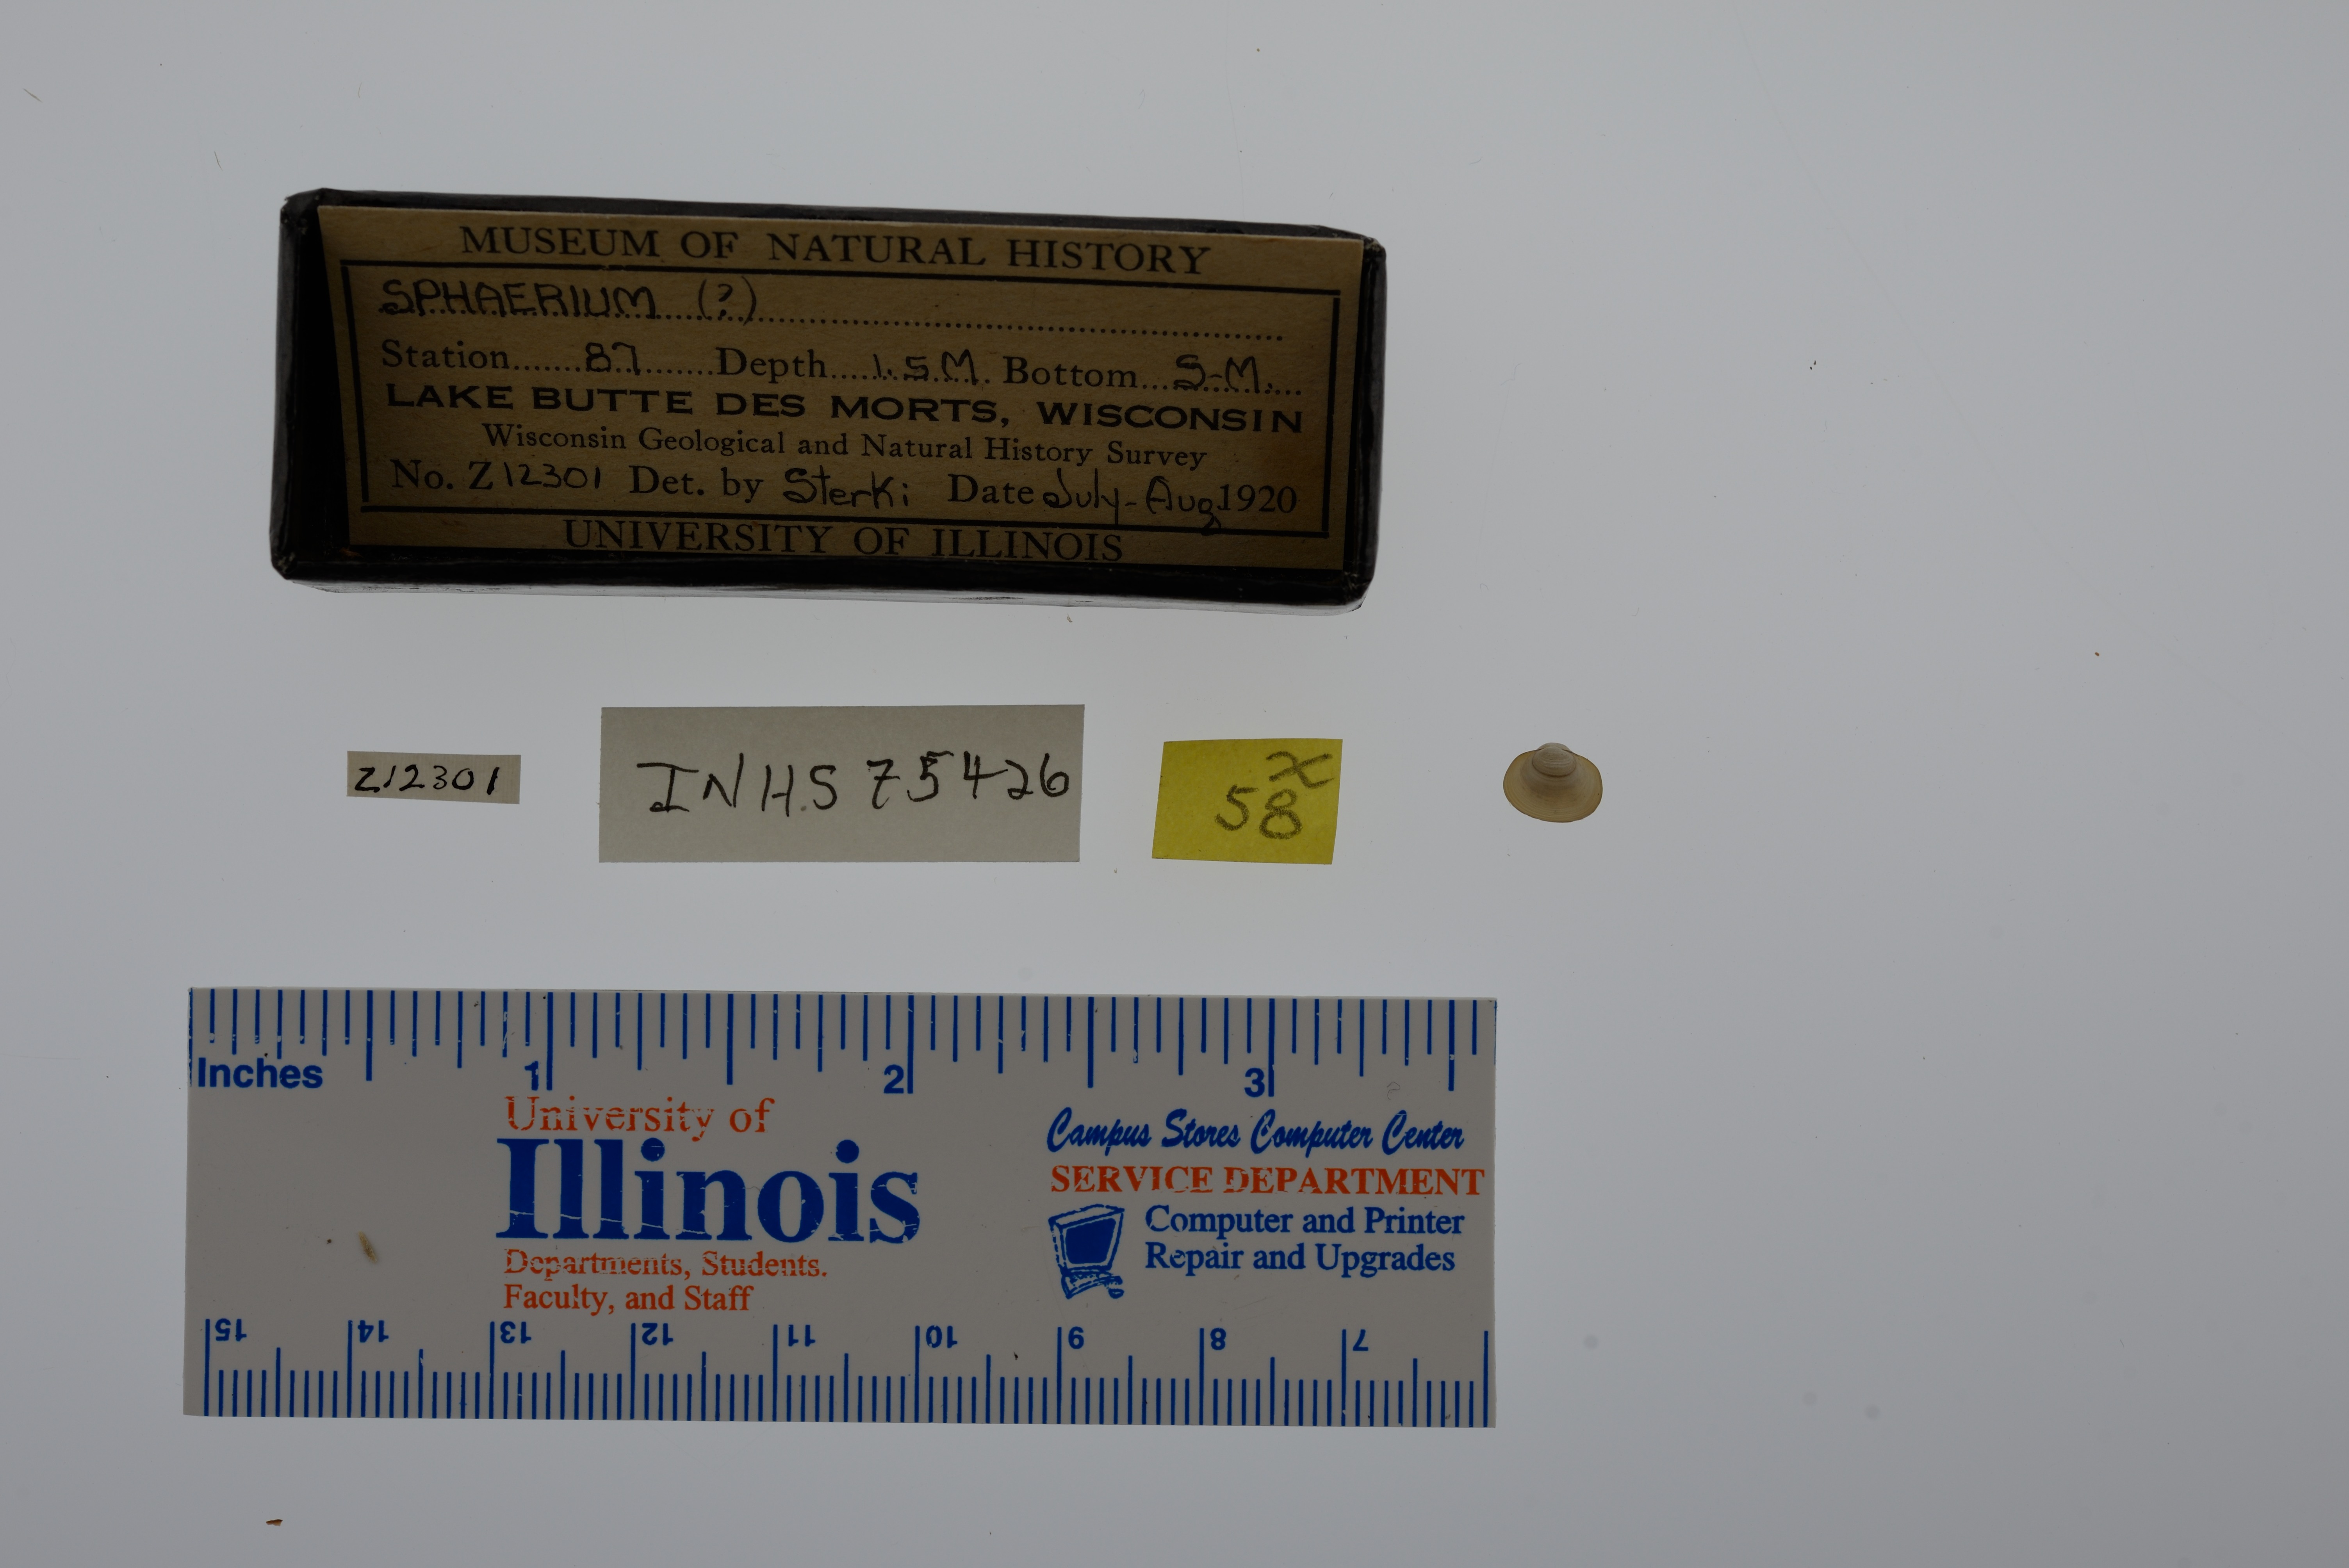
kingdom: Animalia
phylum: Mollusca
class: Bivalvia
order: Sphaeriida
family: Sphaeriidae
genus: Sphaerium
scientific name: Sphaerium
